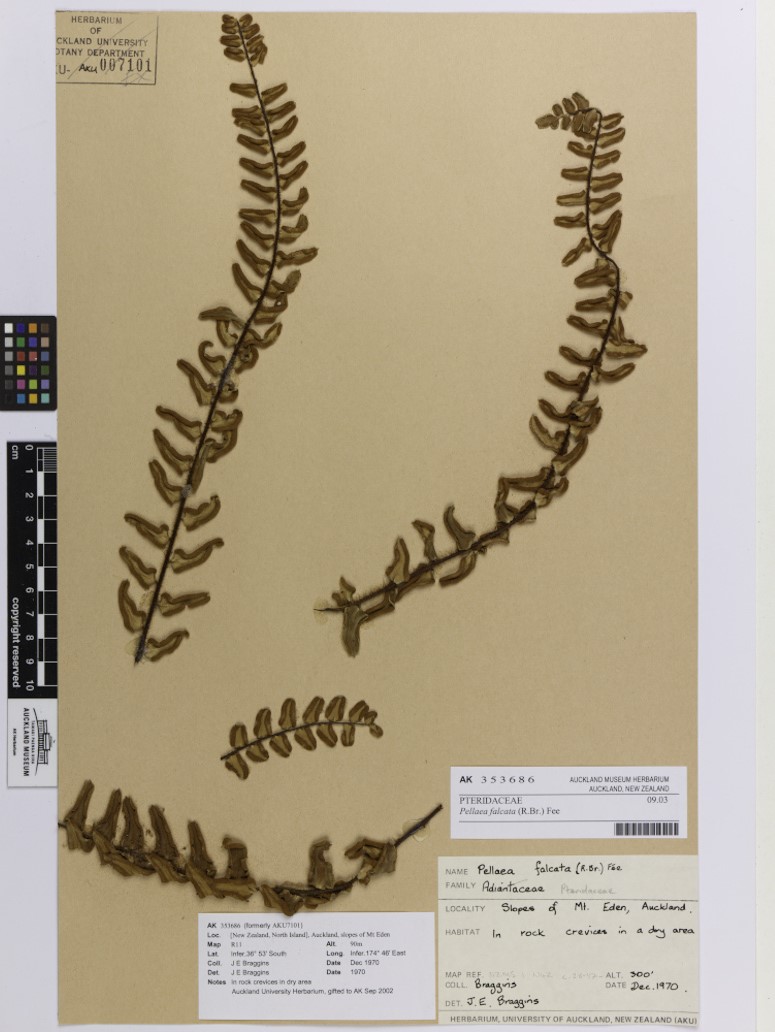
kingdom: Plantae
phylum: Tracheophyta
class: Polypodiopsida
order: Polypodiales
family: Pteridaceae
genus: Pellaea
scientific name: Pellaea falcata
